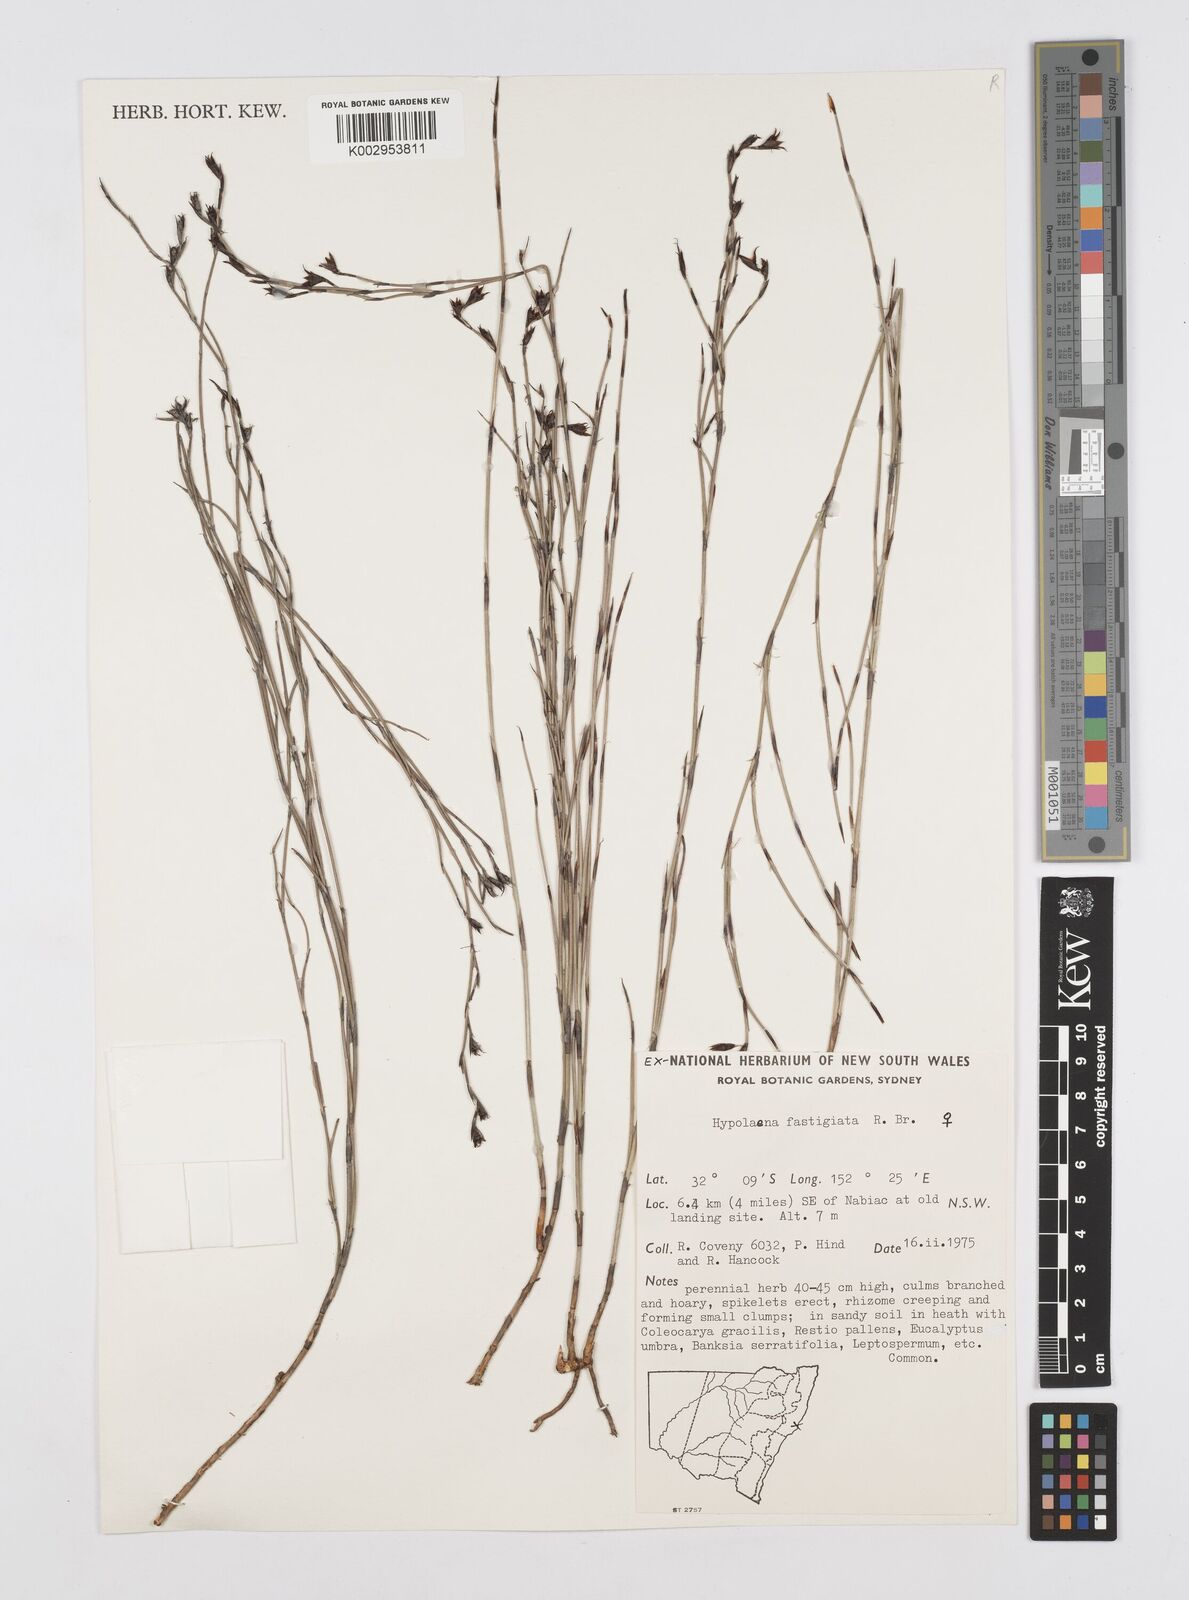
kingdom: Plantae
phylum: Tracheophyta
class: Liliopsida
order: Poales
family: Restionaceae
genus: Hypolaena
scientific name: Hypolaena fastigiata
